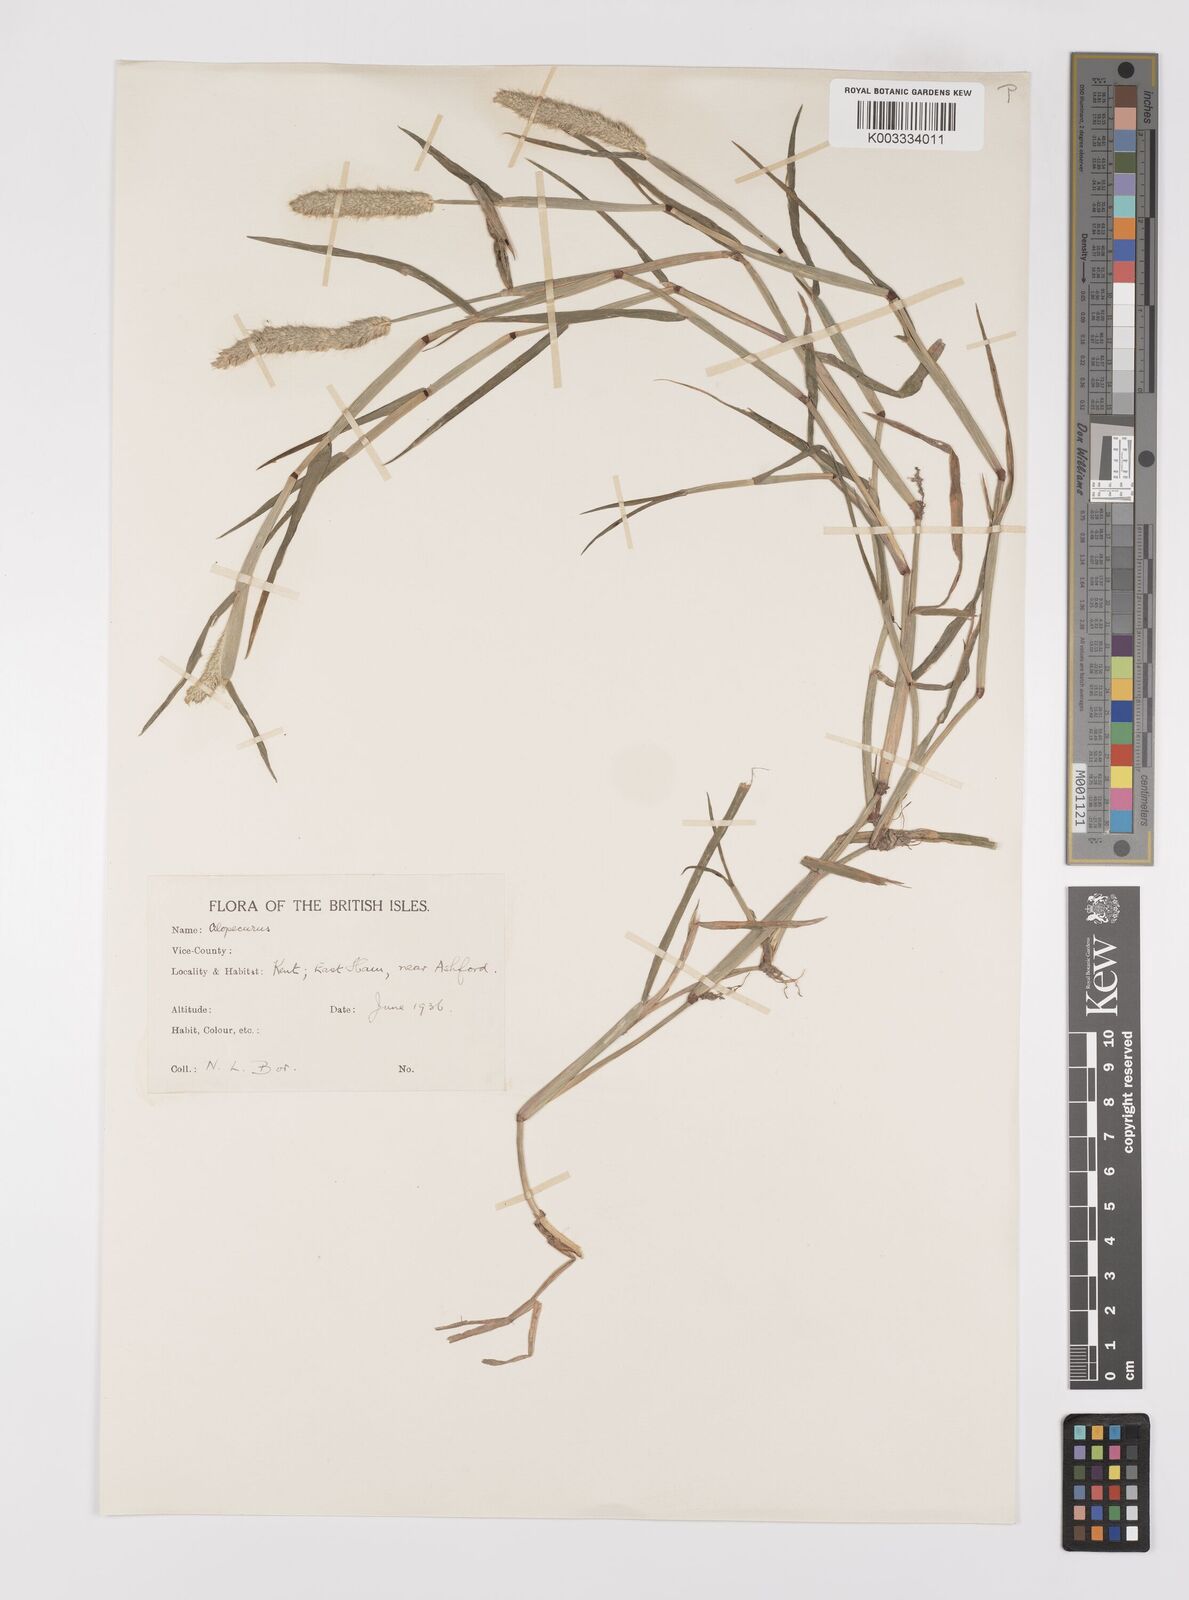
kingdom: Plantae
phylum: Tracheophyta
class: Liliopsida
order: Poales
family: Poaceae
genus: Alopecurus
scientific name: Alopecurus geniculatus
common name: Water foxtail
